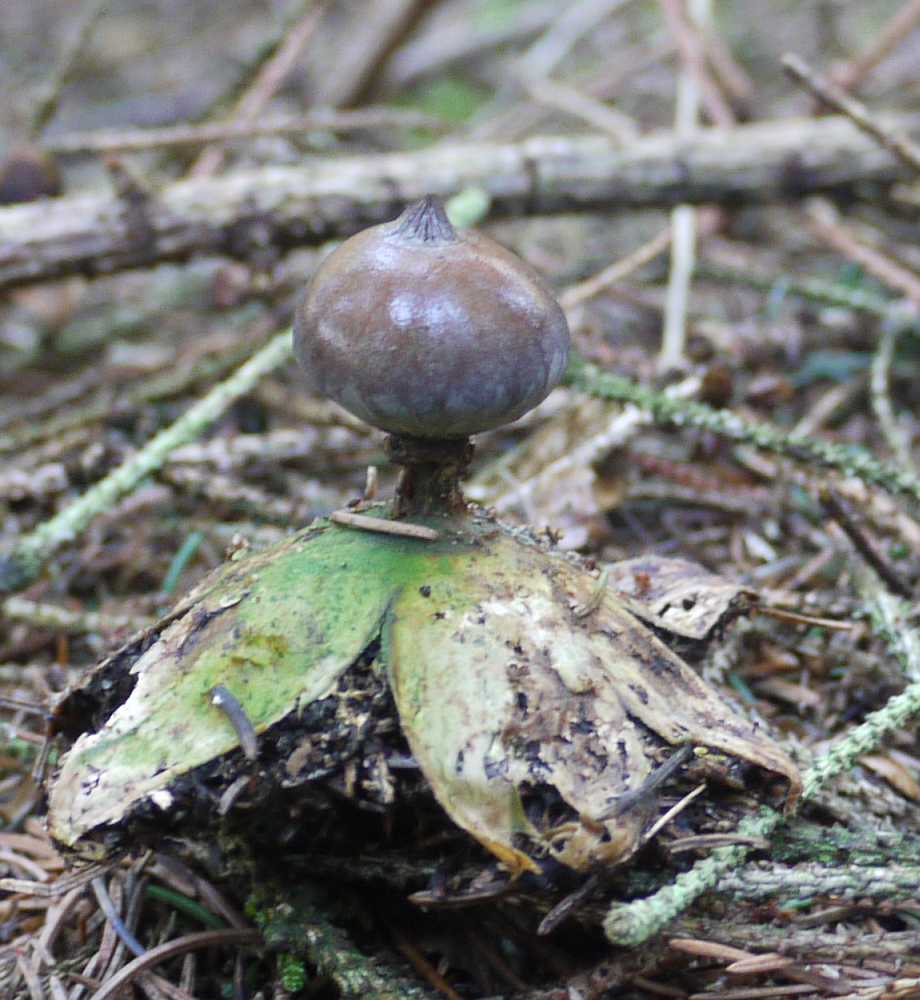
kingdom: Fungi
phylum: Basidiomycota
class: Agaricomycetes
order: Geastrales
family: Geastraceae
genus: Geastrum
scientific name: Geastrum pectinatum
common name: stilket stjernebold
